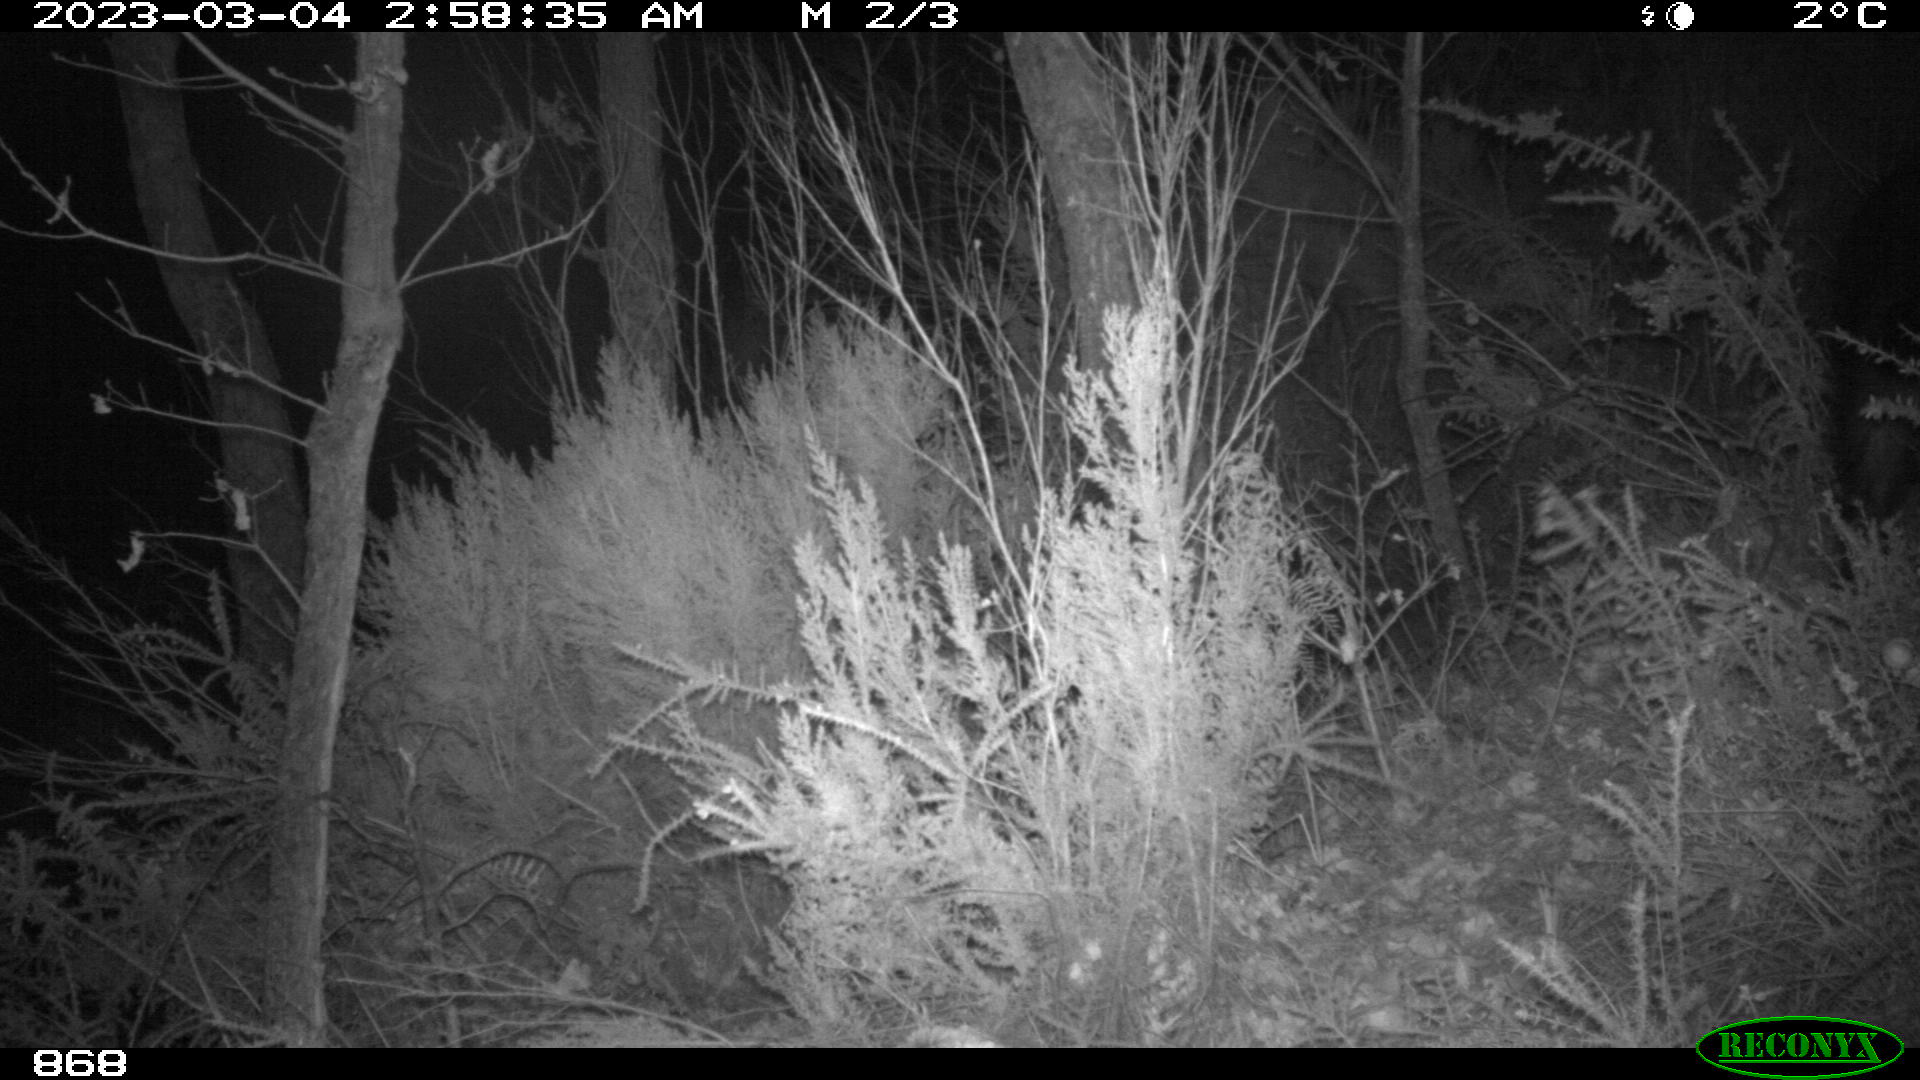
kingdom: Animalia
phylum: Chordata
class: Mammalia
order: Artiodactyla
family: Suidae
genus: Sus
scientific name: Sus scrofa
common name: Wild boar
